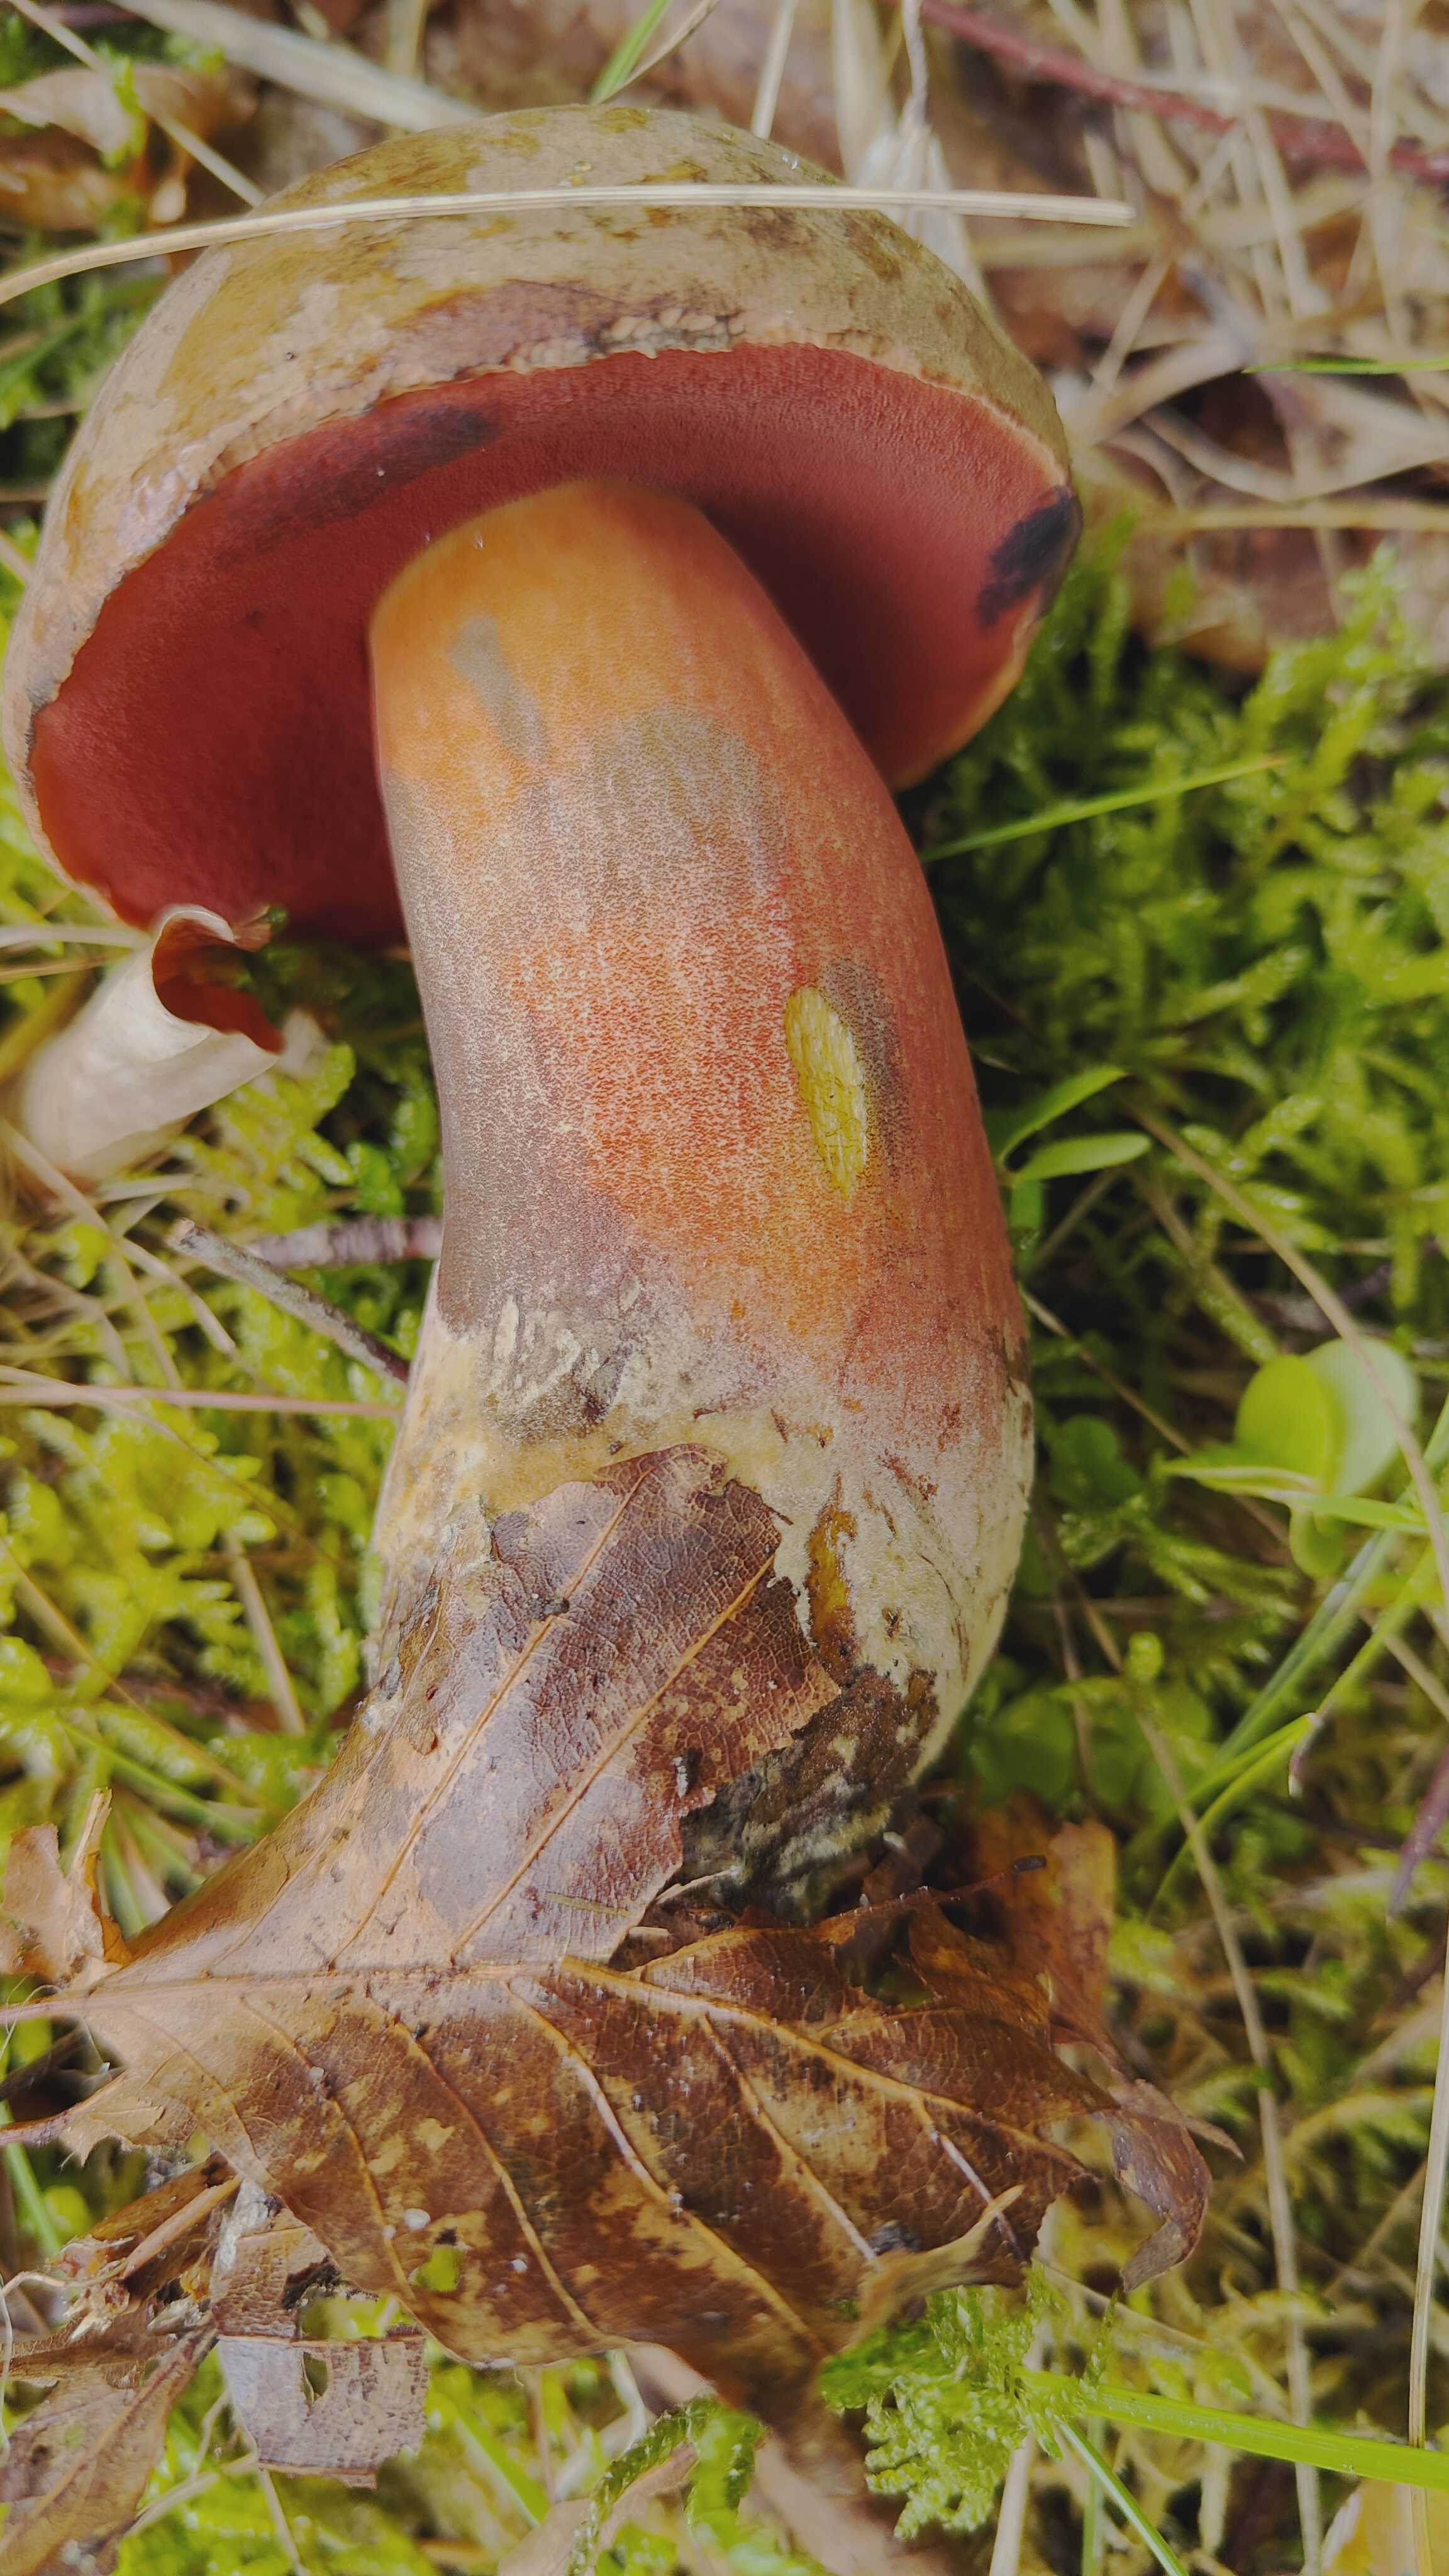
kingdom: Fungi
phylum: Basidiomycota
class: Agaricomycetes
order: Boletales
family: Boletaceae
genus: Neoboletus
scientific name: Neoboletus erythropus
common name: punktstokket indigorørhat
